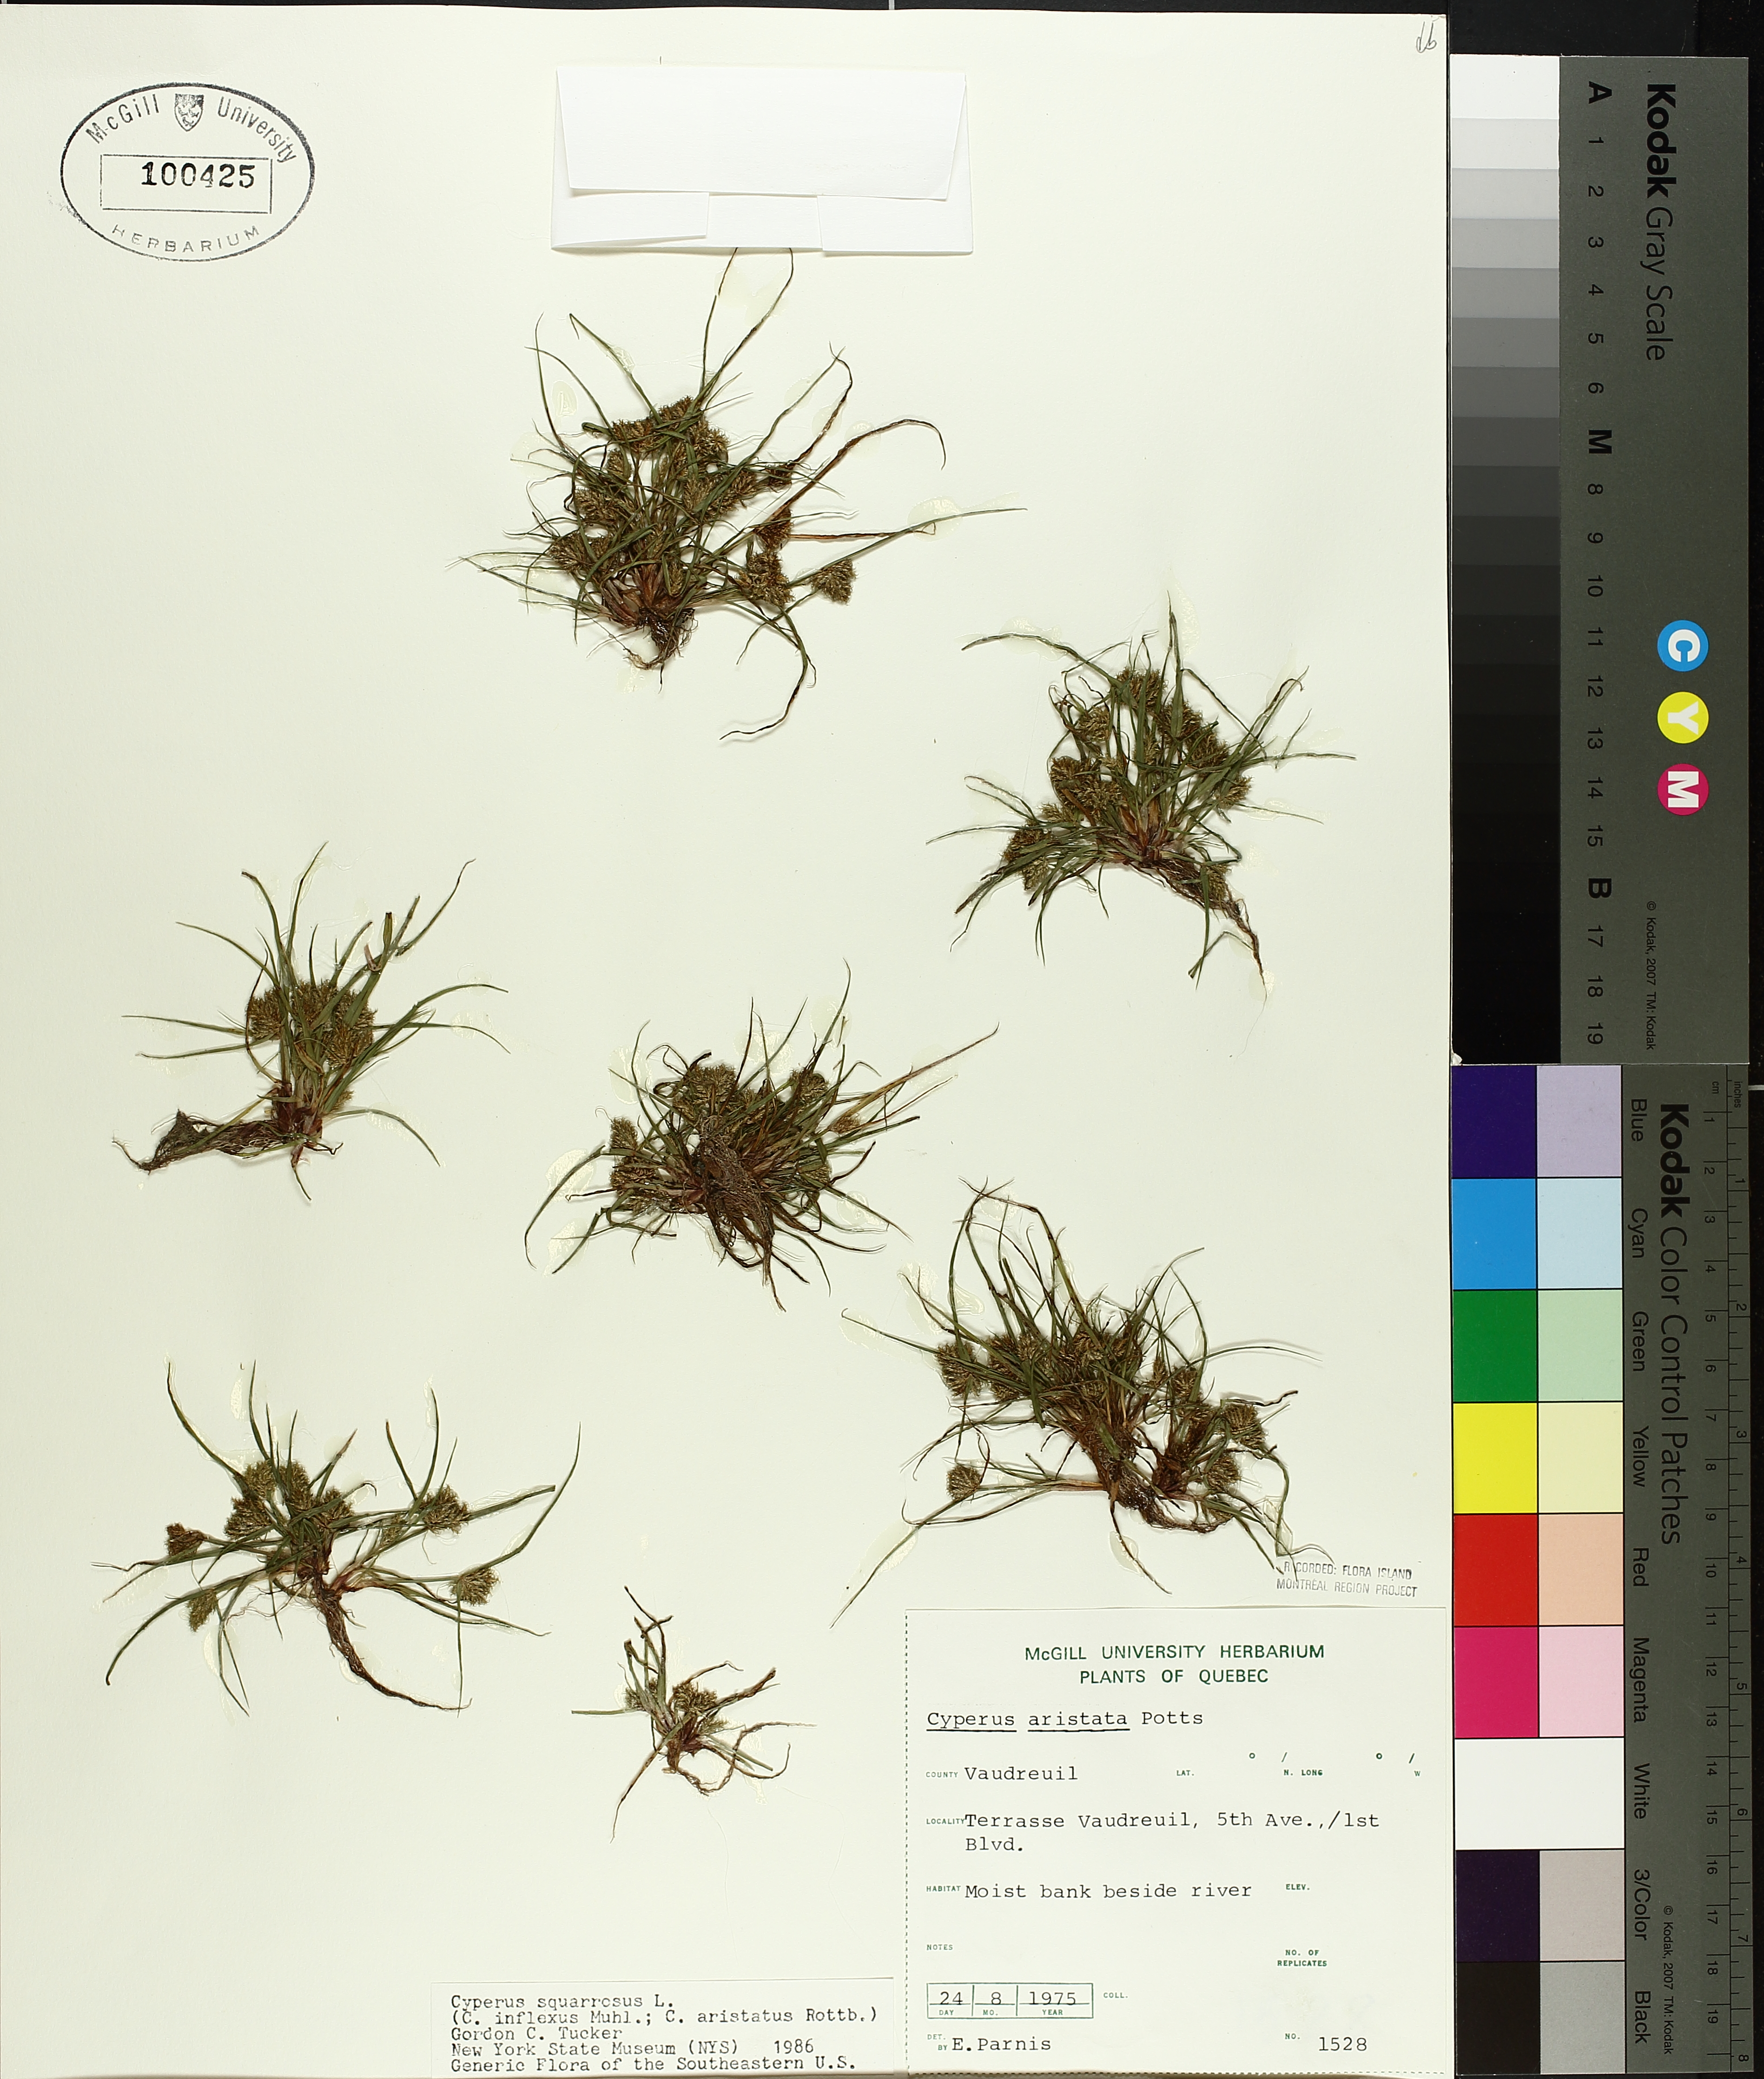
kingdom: Plantae
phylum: Tracheophyta
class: Liliopsida
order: Poales
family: Cyperaceae
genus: Cyperus
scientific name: Cyperus squarrosus
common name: Awned cyperus
